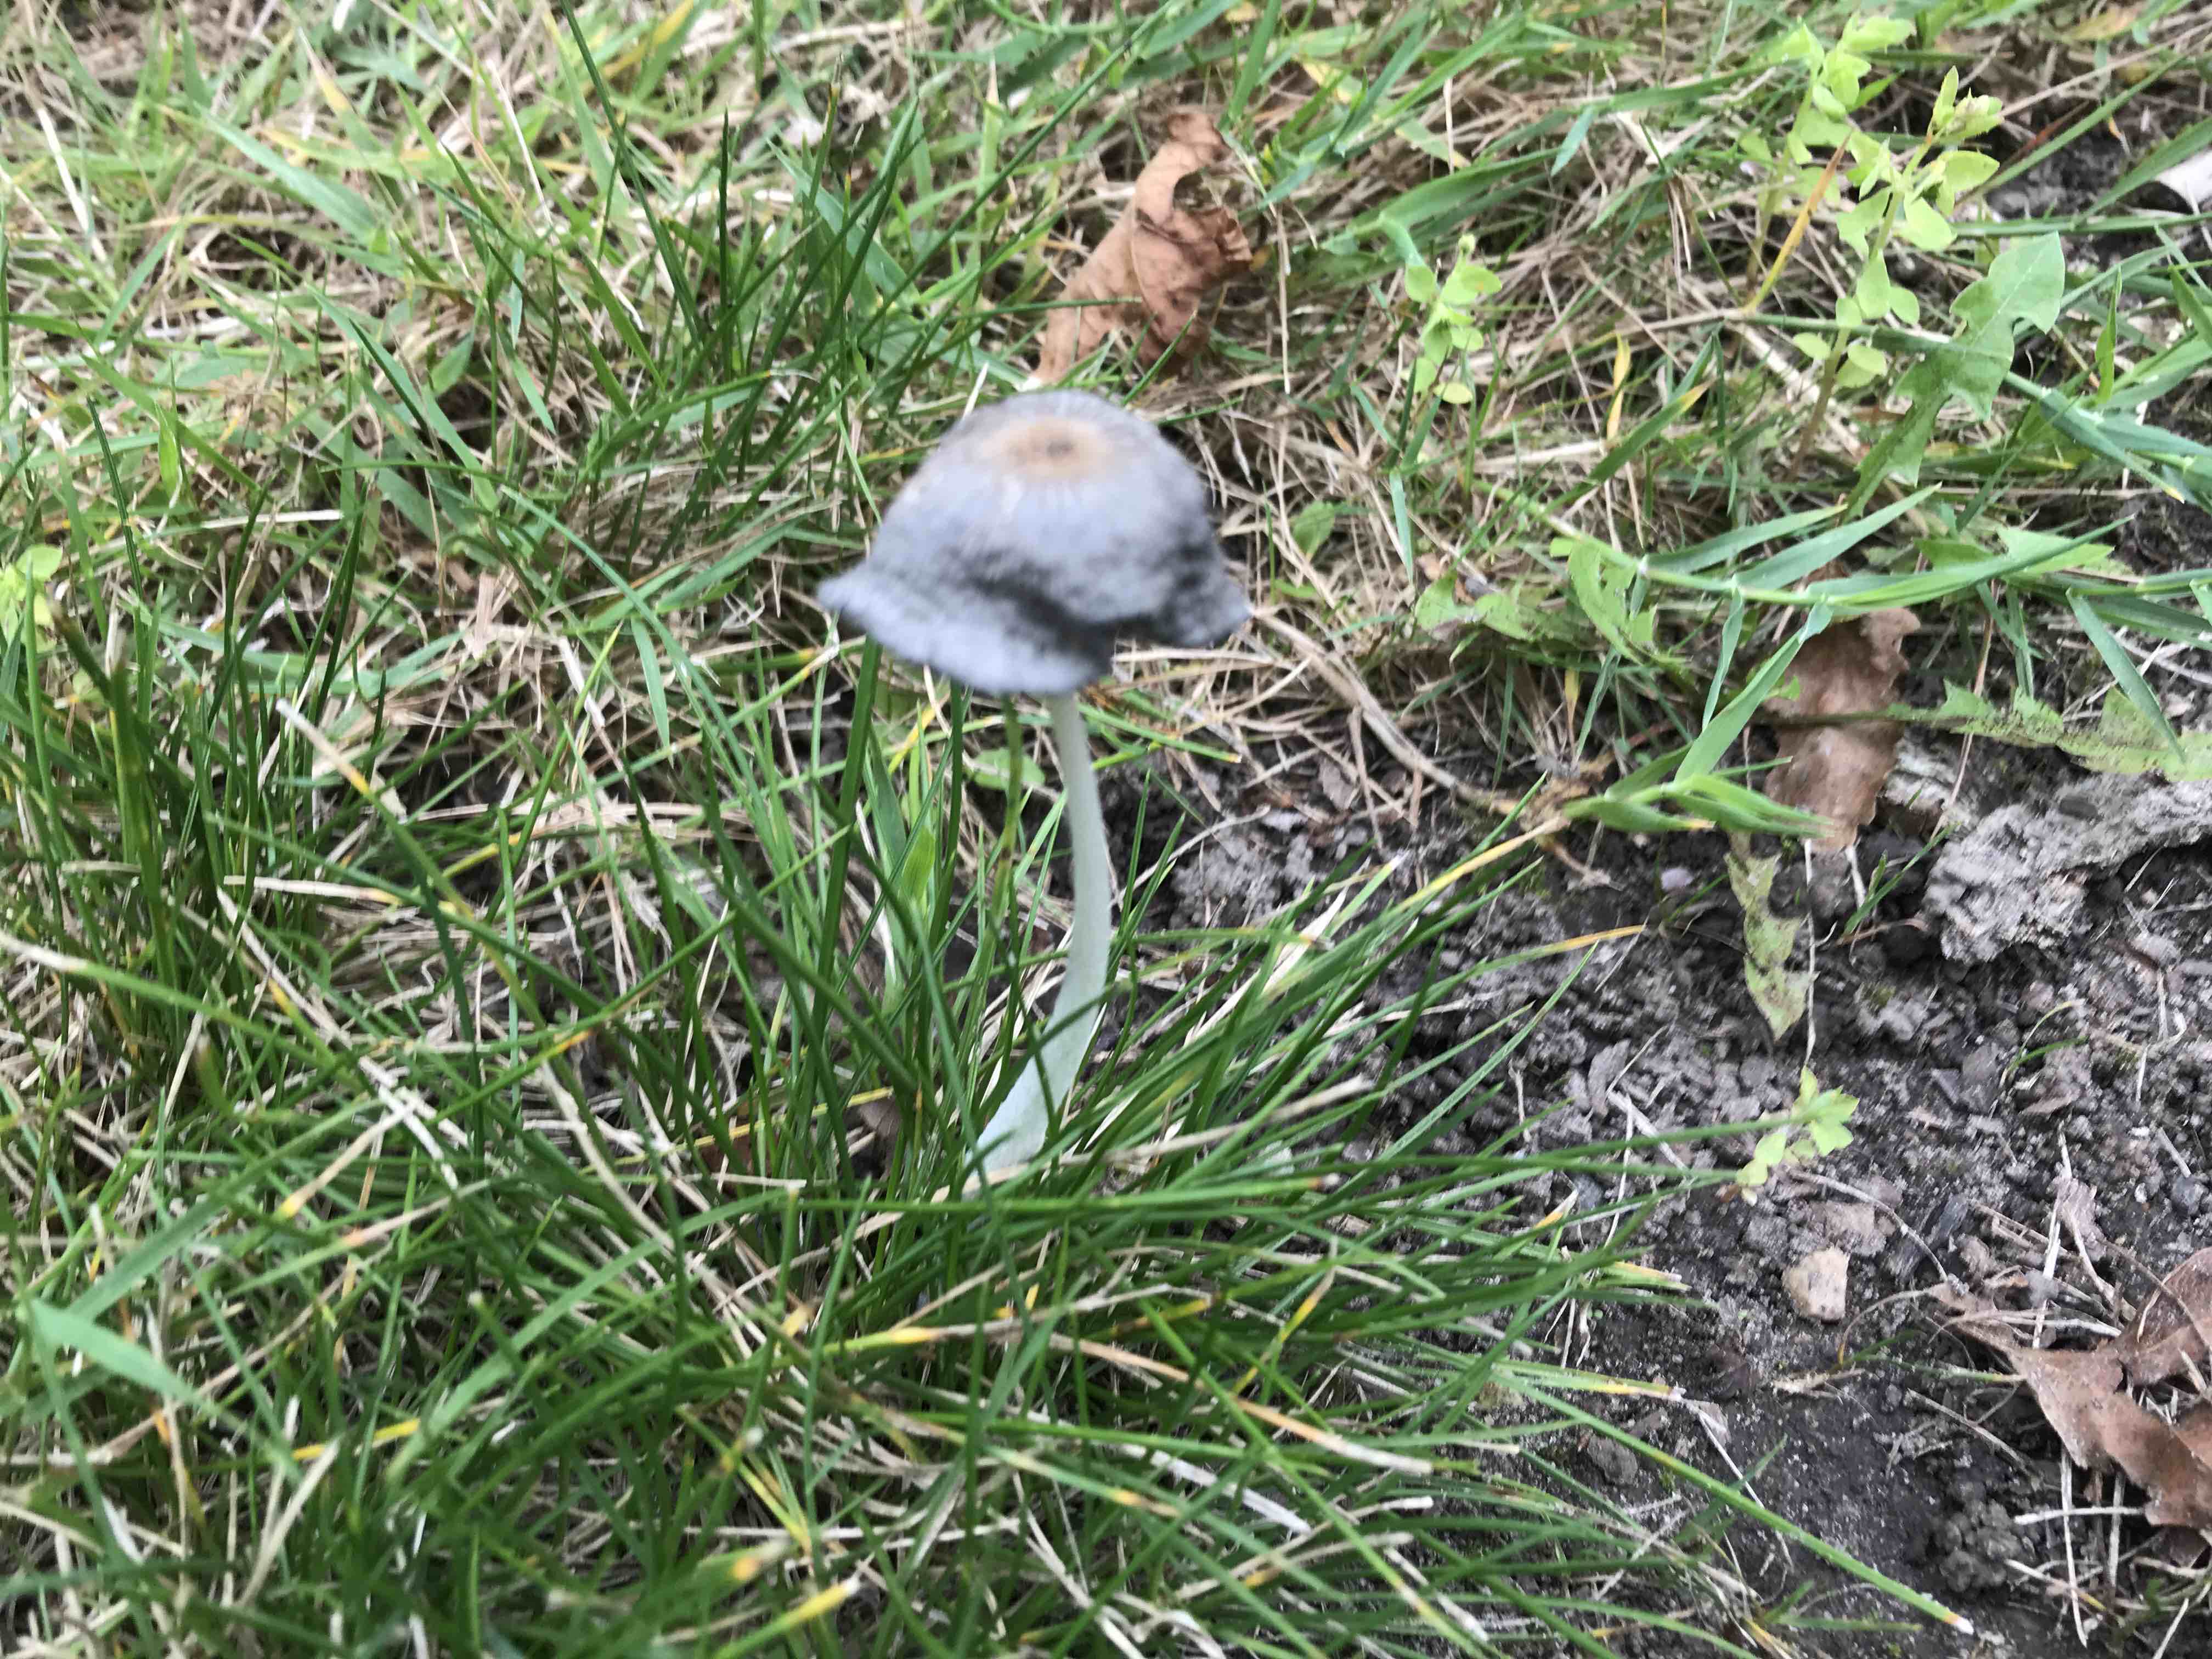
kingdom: Fungi
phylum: Basidiomycota
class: Agaricomycetes
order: Agaricales
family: Psathyrellaceae
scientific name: Psathyrellaceae
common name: mørkhatfamilien
